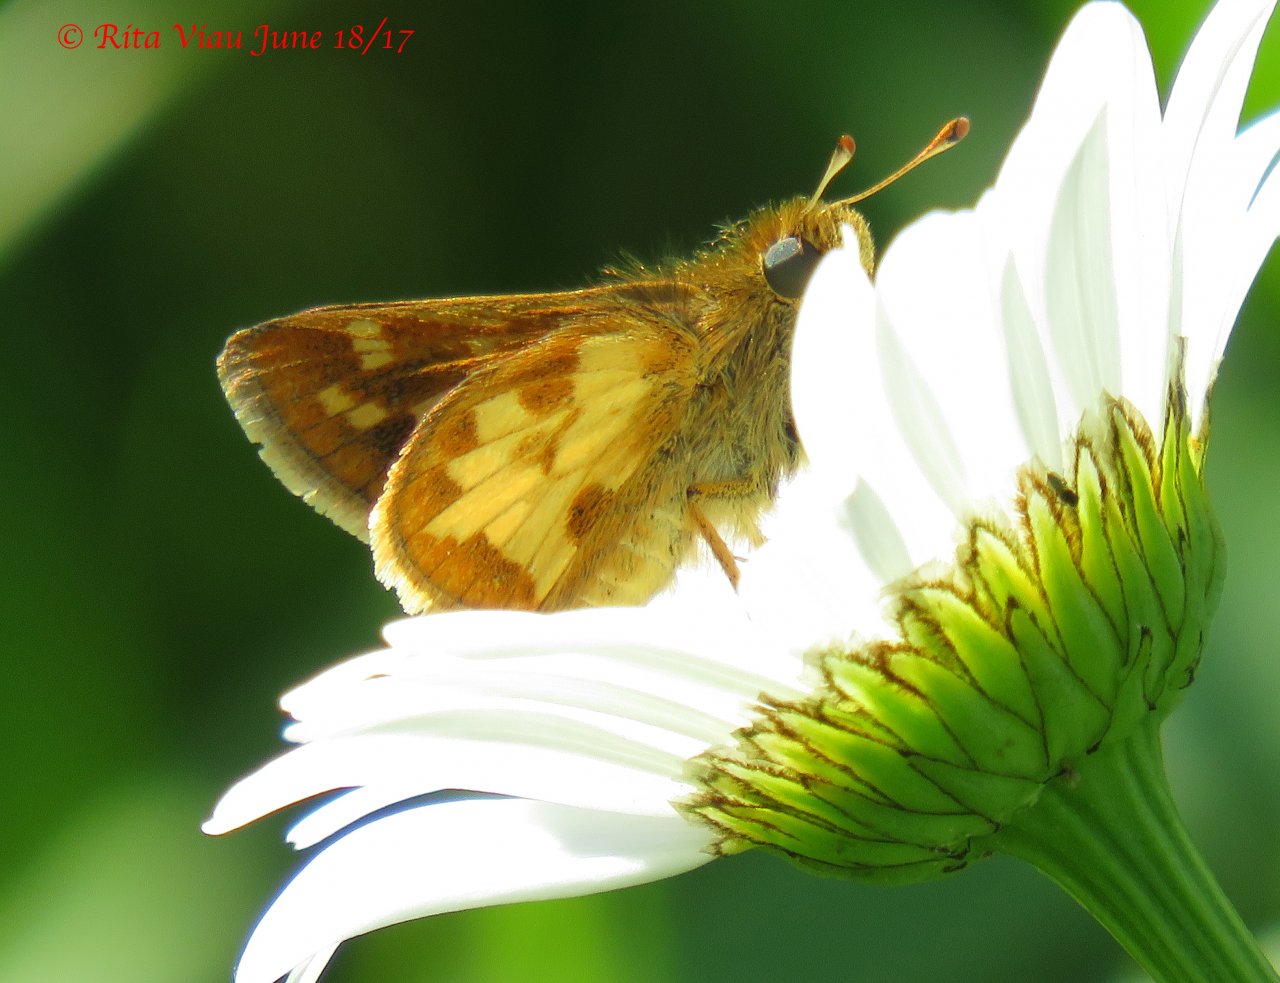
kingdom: Animalia
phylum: Arthropoda
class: Insecta
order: Lepidoptera
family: Hesperiidae
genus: Polites
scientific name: Polites coras
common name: Peck's Skipper
